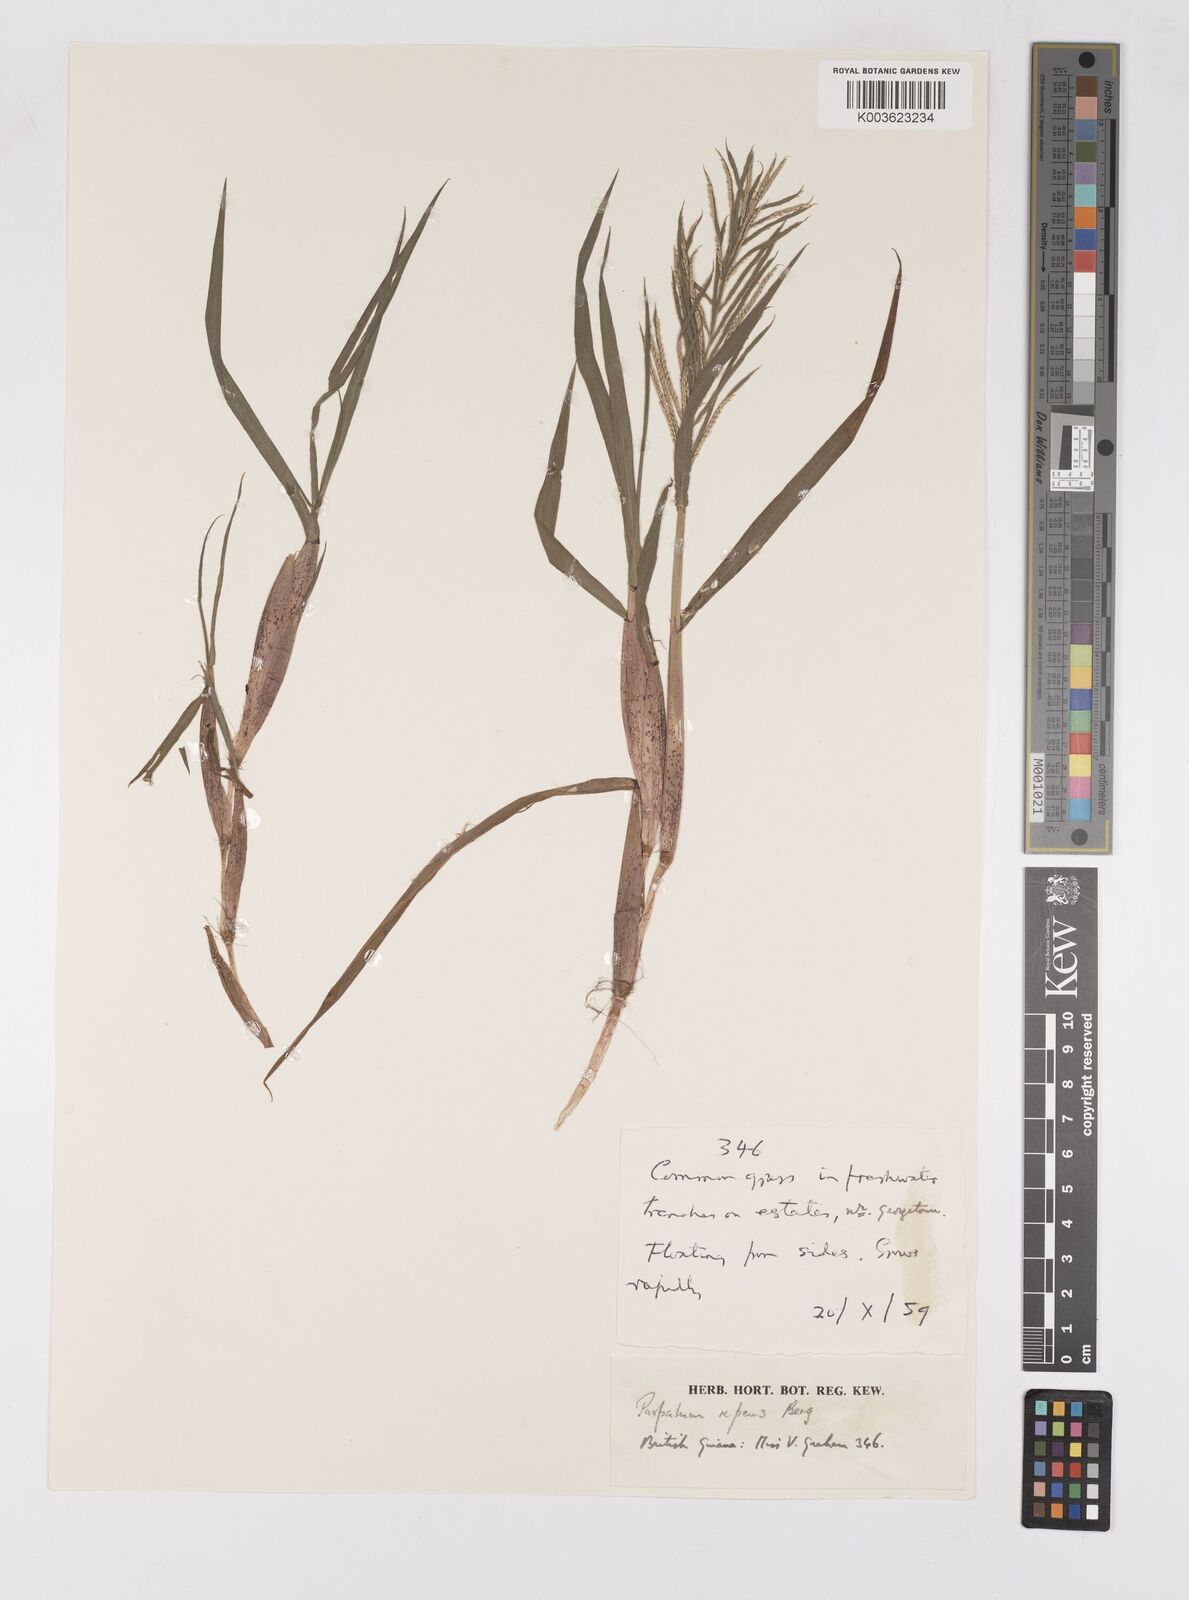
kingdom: Plantae
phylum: Tracheophyta
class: Liliopsida
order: Poales
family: Poaceae
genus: Paspalum
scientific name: Paspalum repens
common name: Water paspalum
